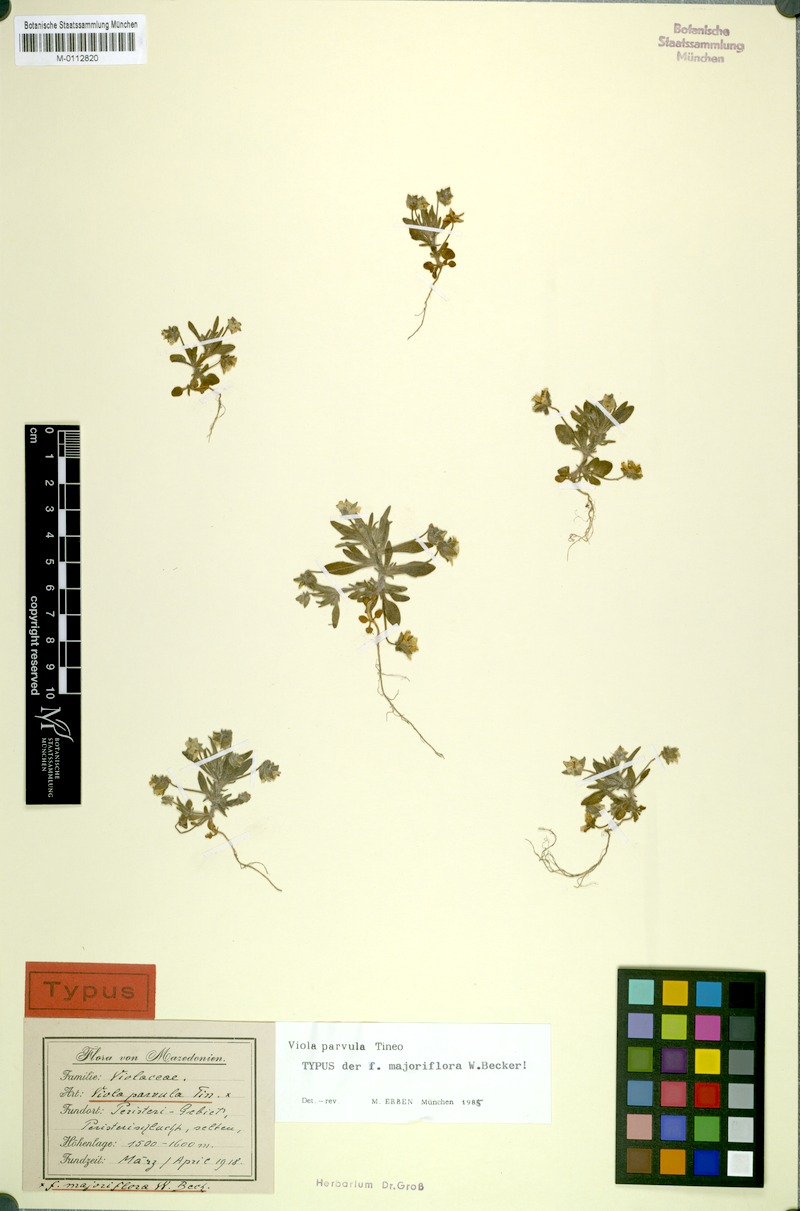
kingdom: Plantae
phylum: Tracheophyta
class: Magnoliopsida
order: Malpighiales
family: Violaceae
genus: Viola
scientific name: Viola parvula
